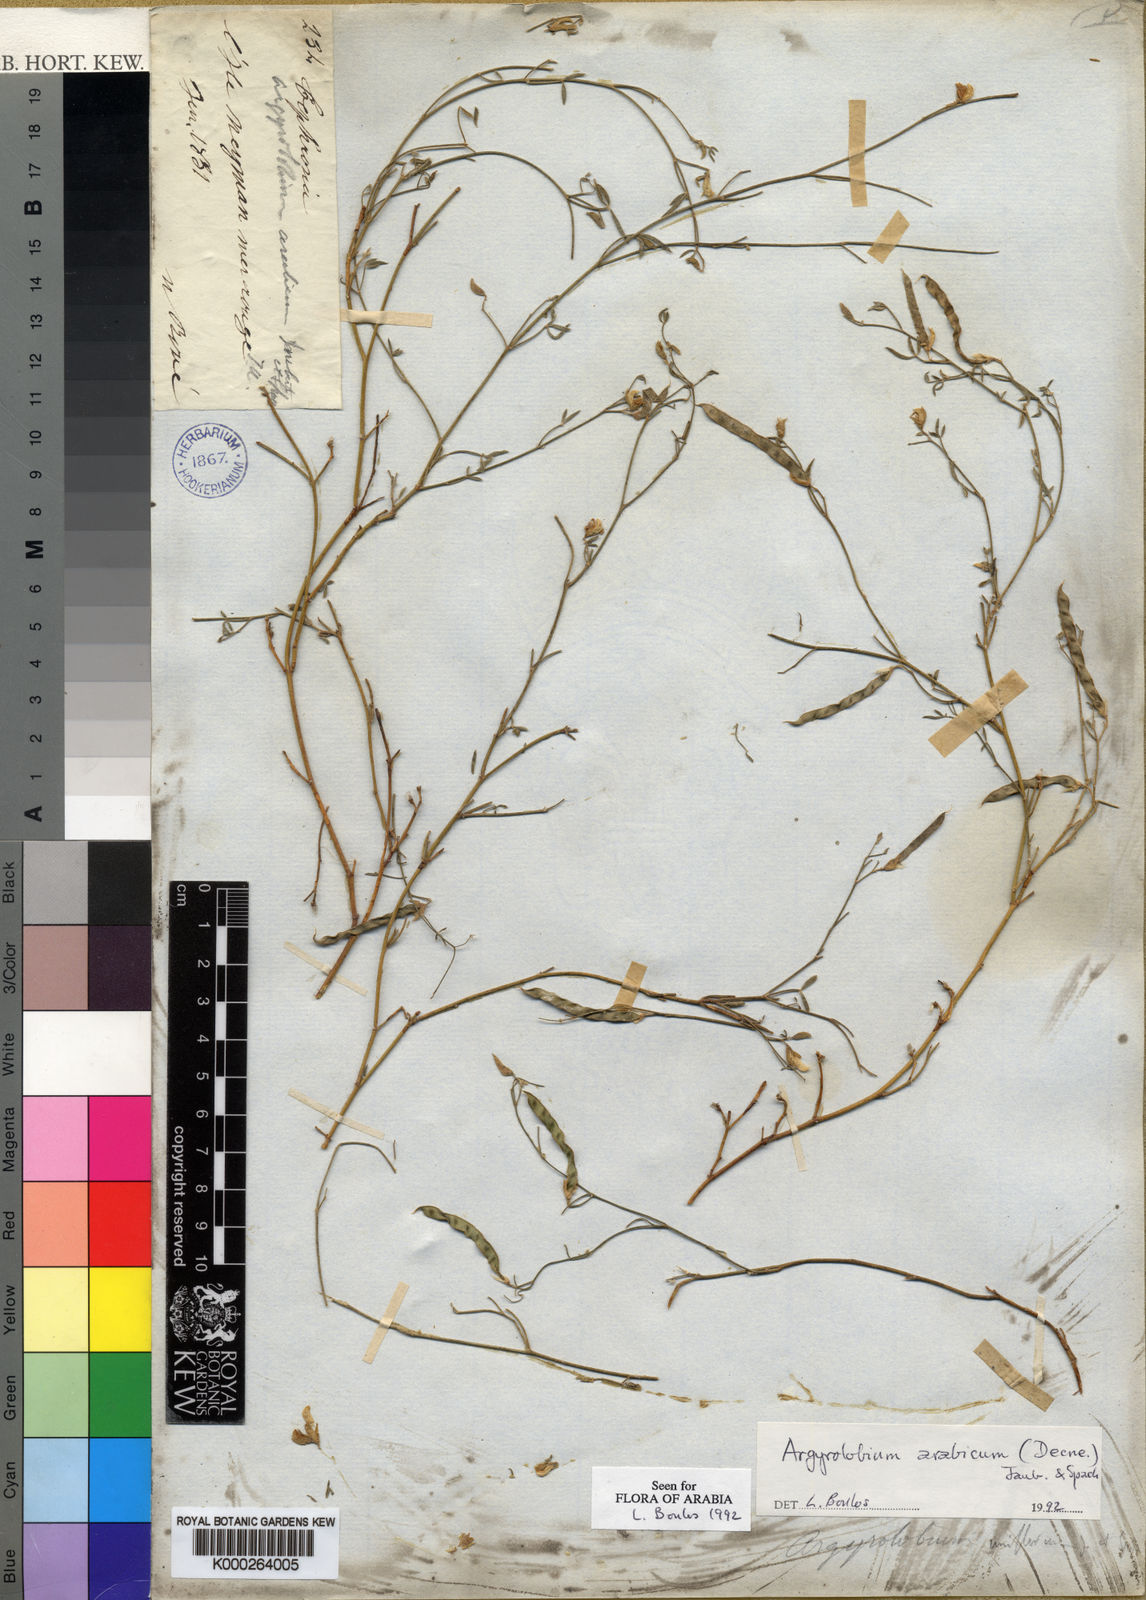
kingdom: Plantae
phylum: Tracheophyta
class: Magnoliopsida
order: Fabales
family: Fabaceae
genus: Argyrolobium
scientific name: Argyrolobium arabicum
